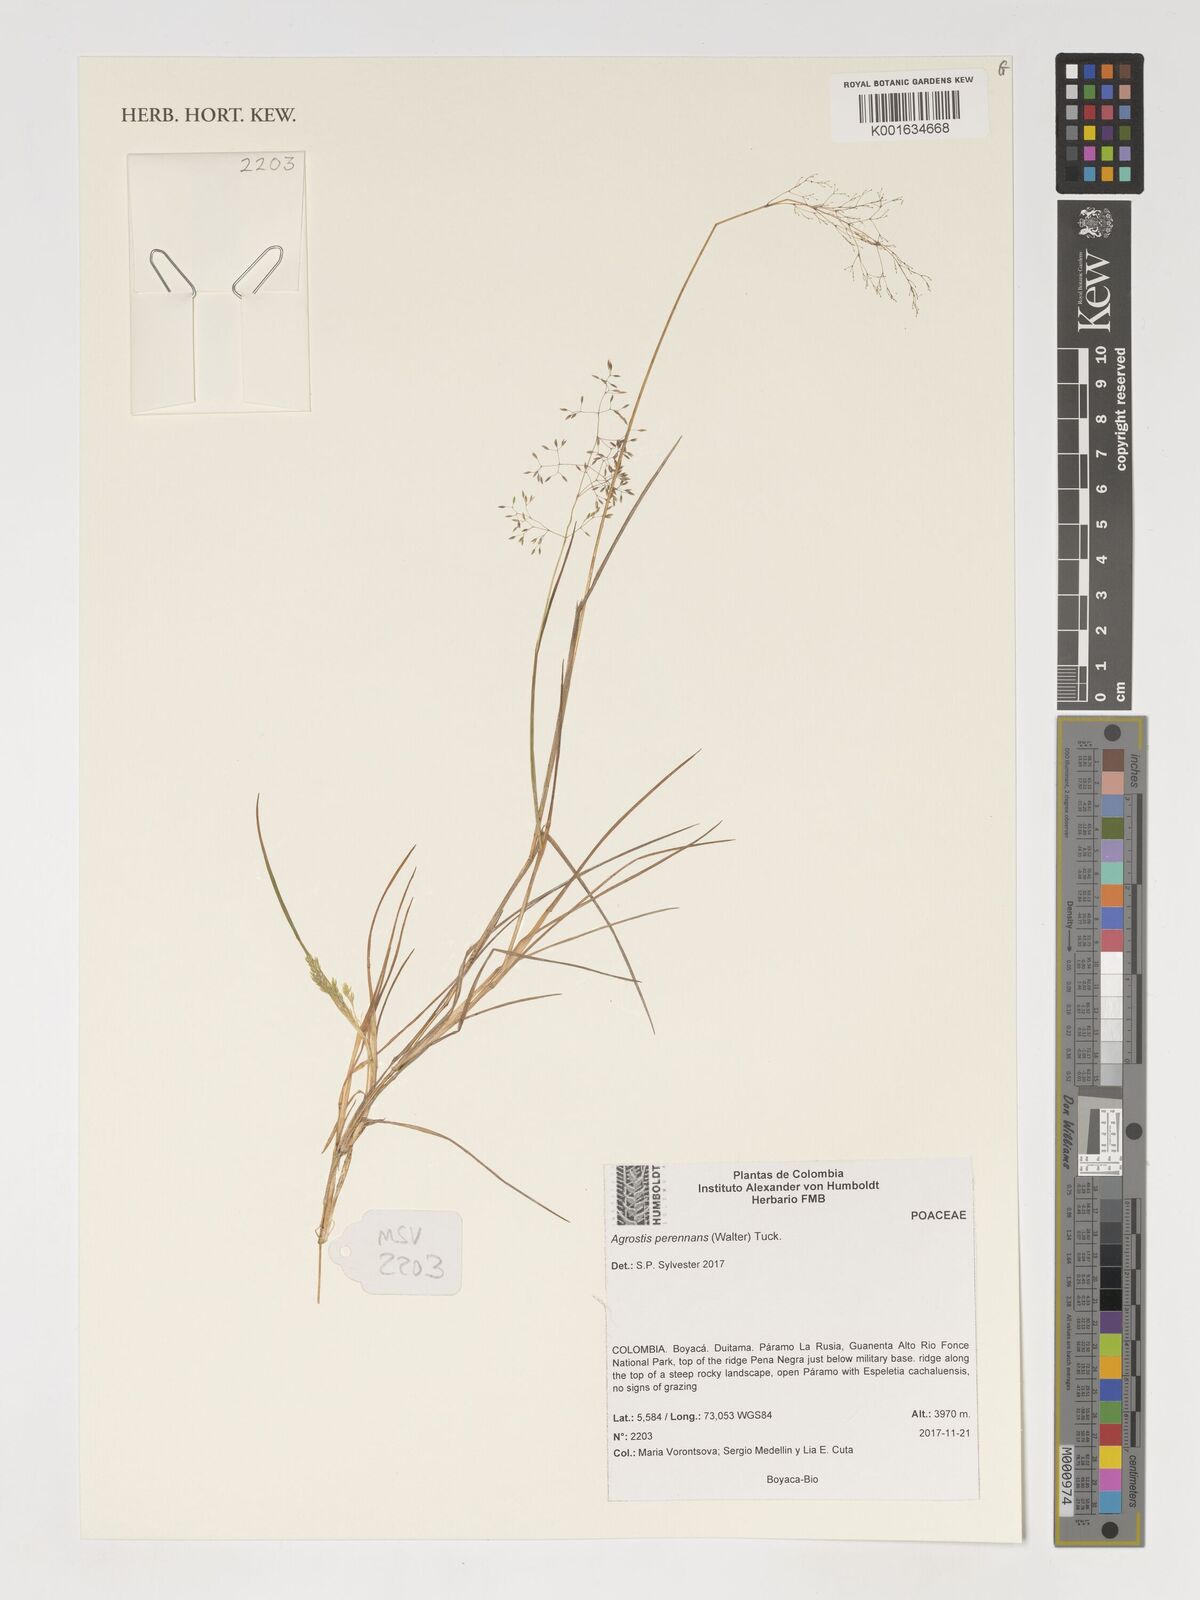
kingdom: Plantae
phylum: Tracheophyta
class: Liliopsida
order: Poales
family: Poaceae
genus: Agrostis
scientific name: Agrostis perennans
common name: Autumn bent
